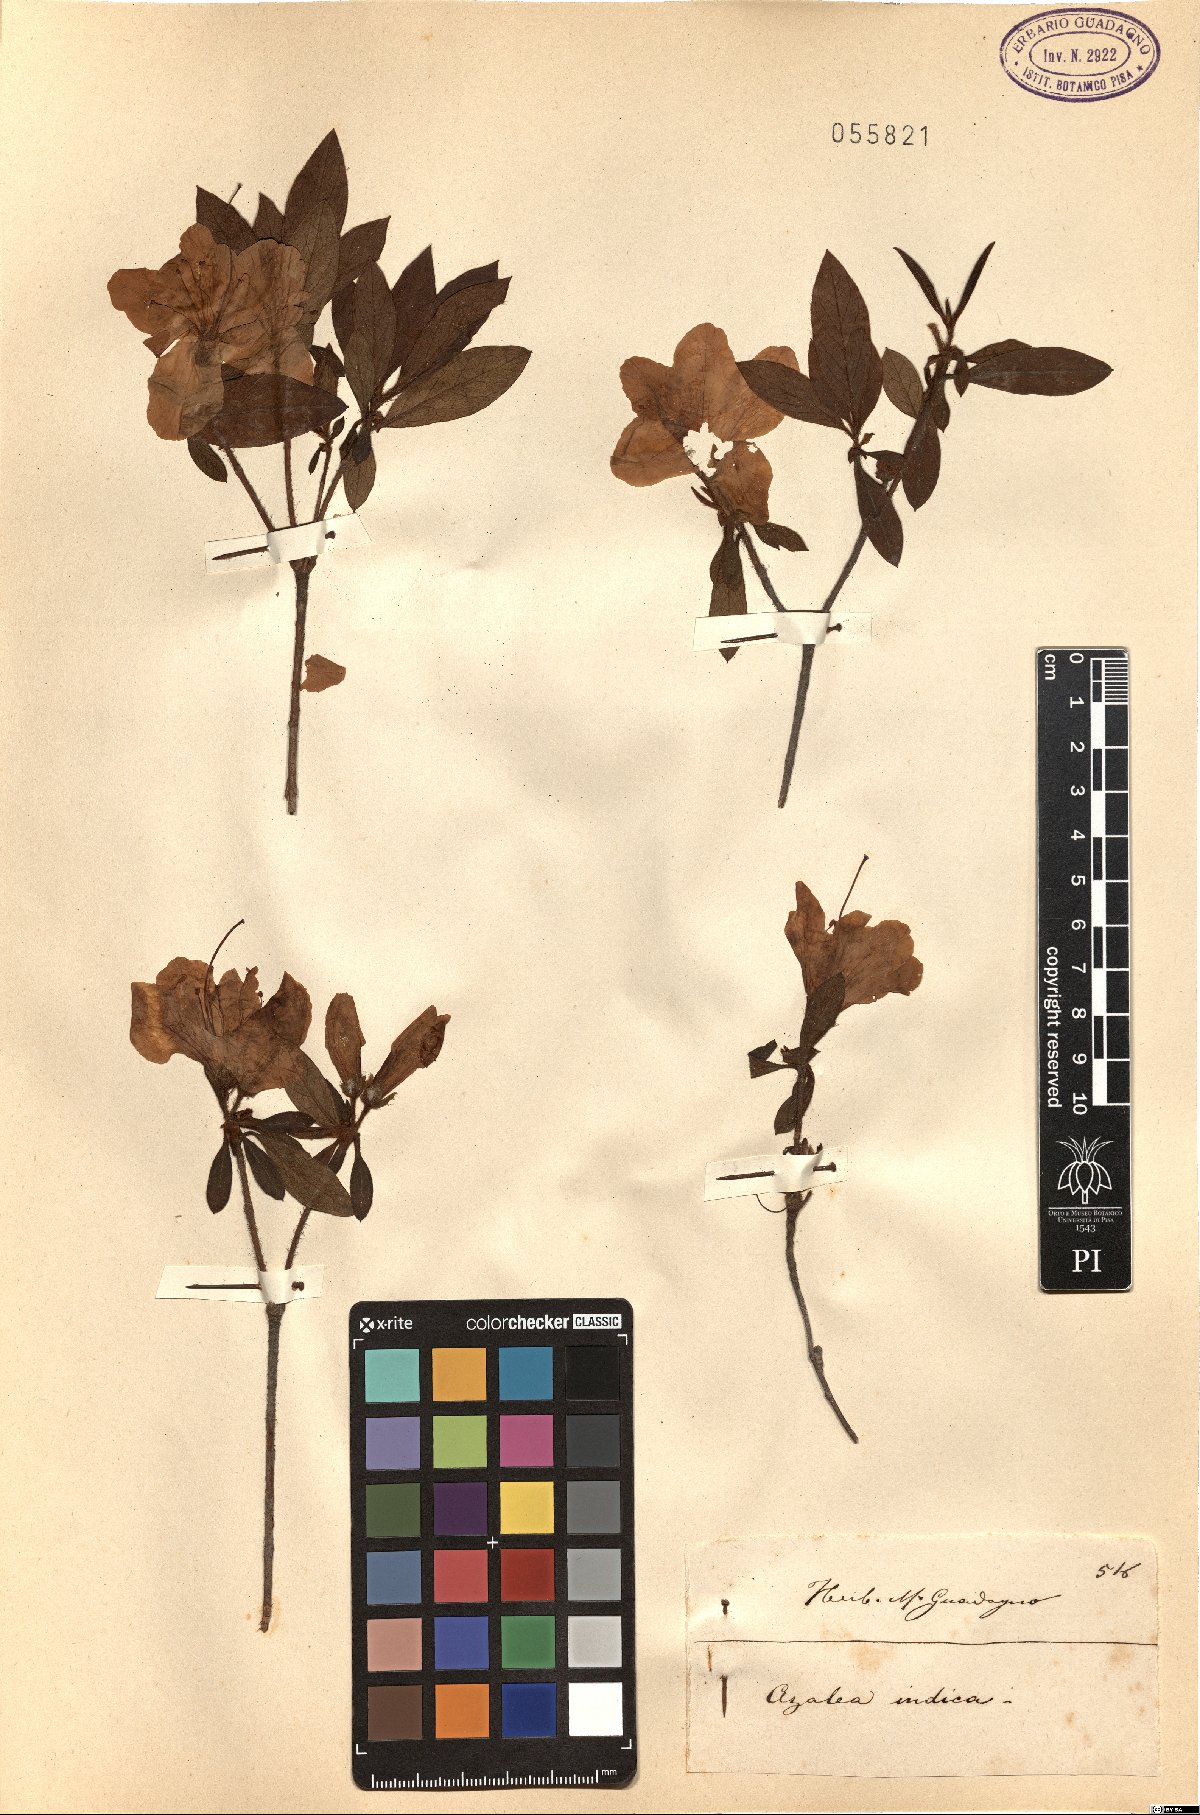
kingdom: Plantae
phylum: Tracheophyta
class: Magnoliopsida
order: Ericales
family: Ericaceae
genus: Rhododendron
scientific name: Rhododendron indicum
